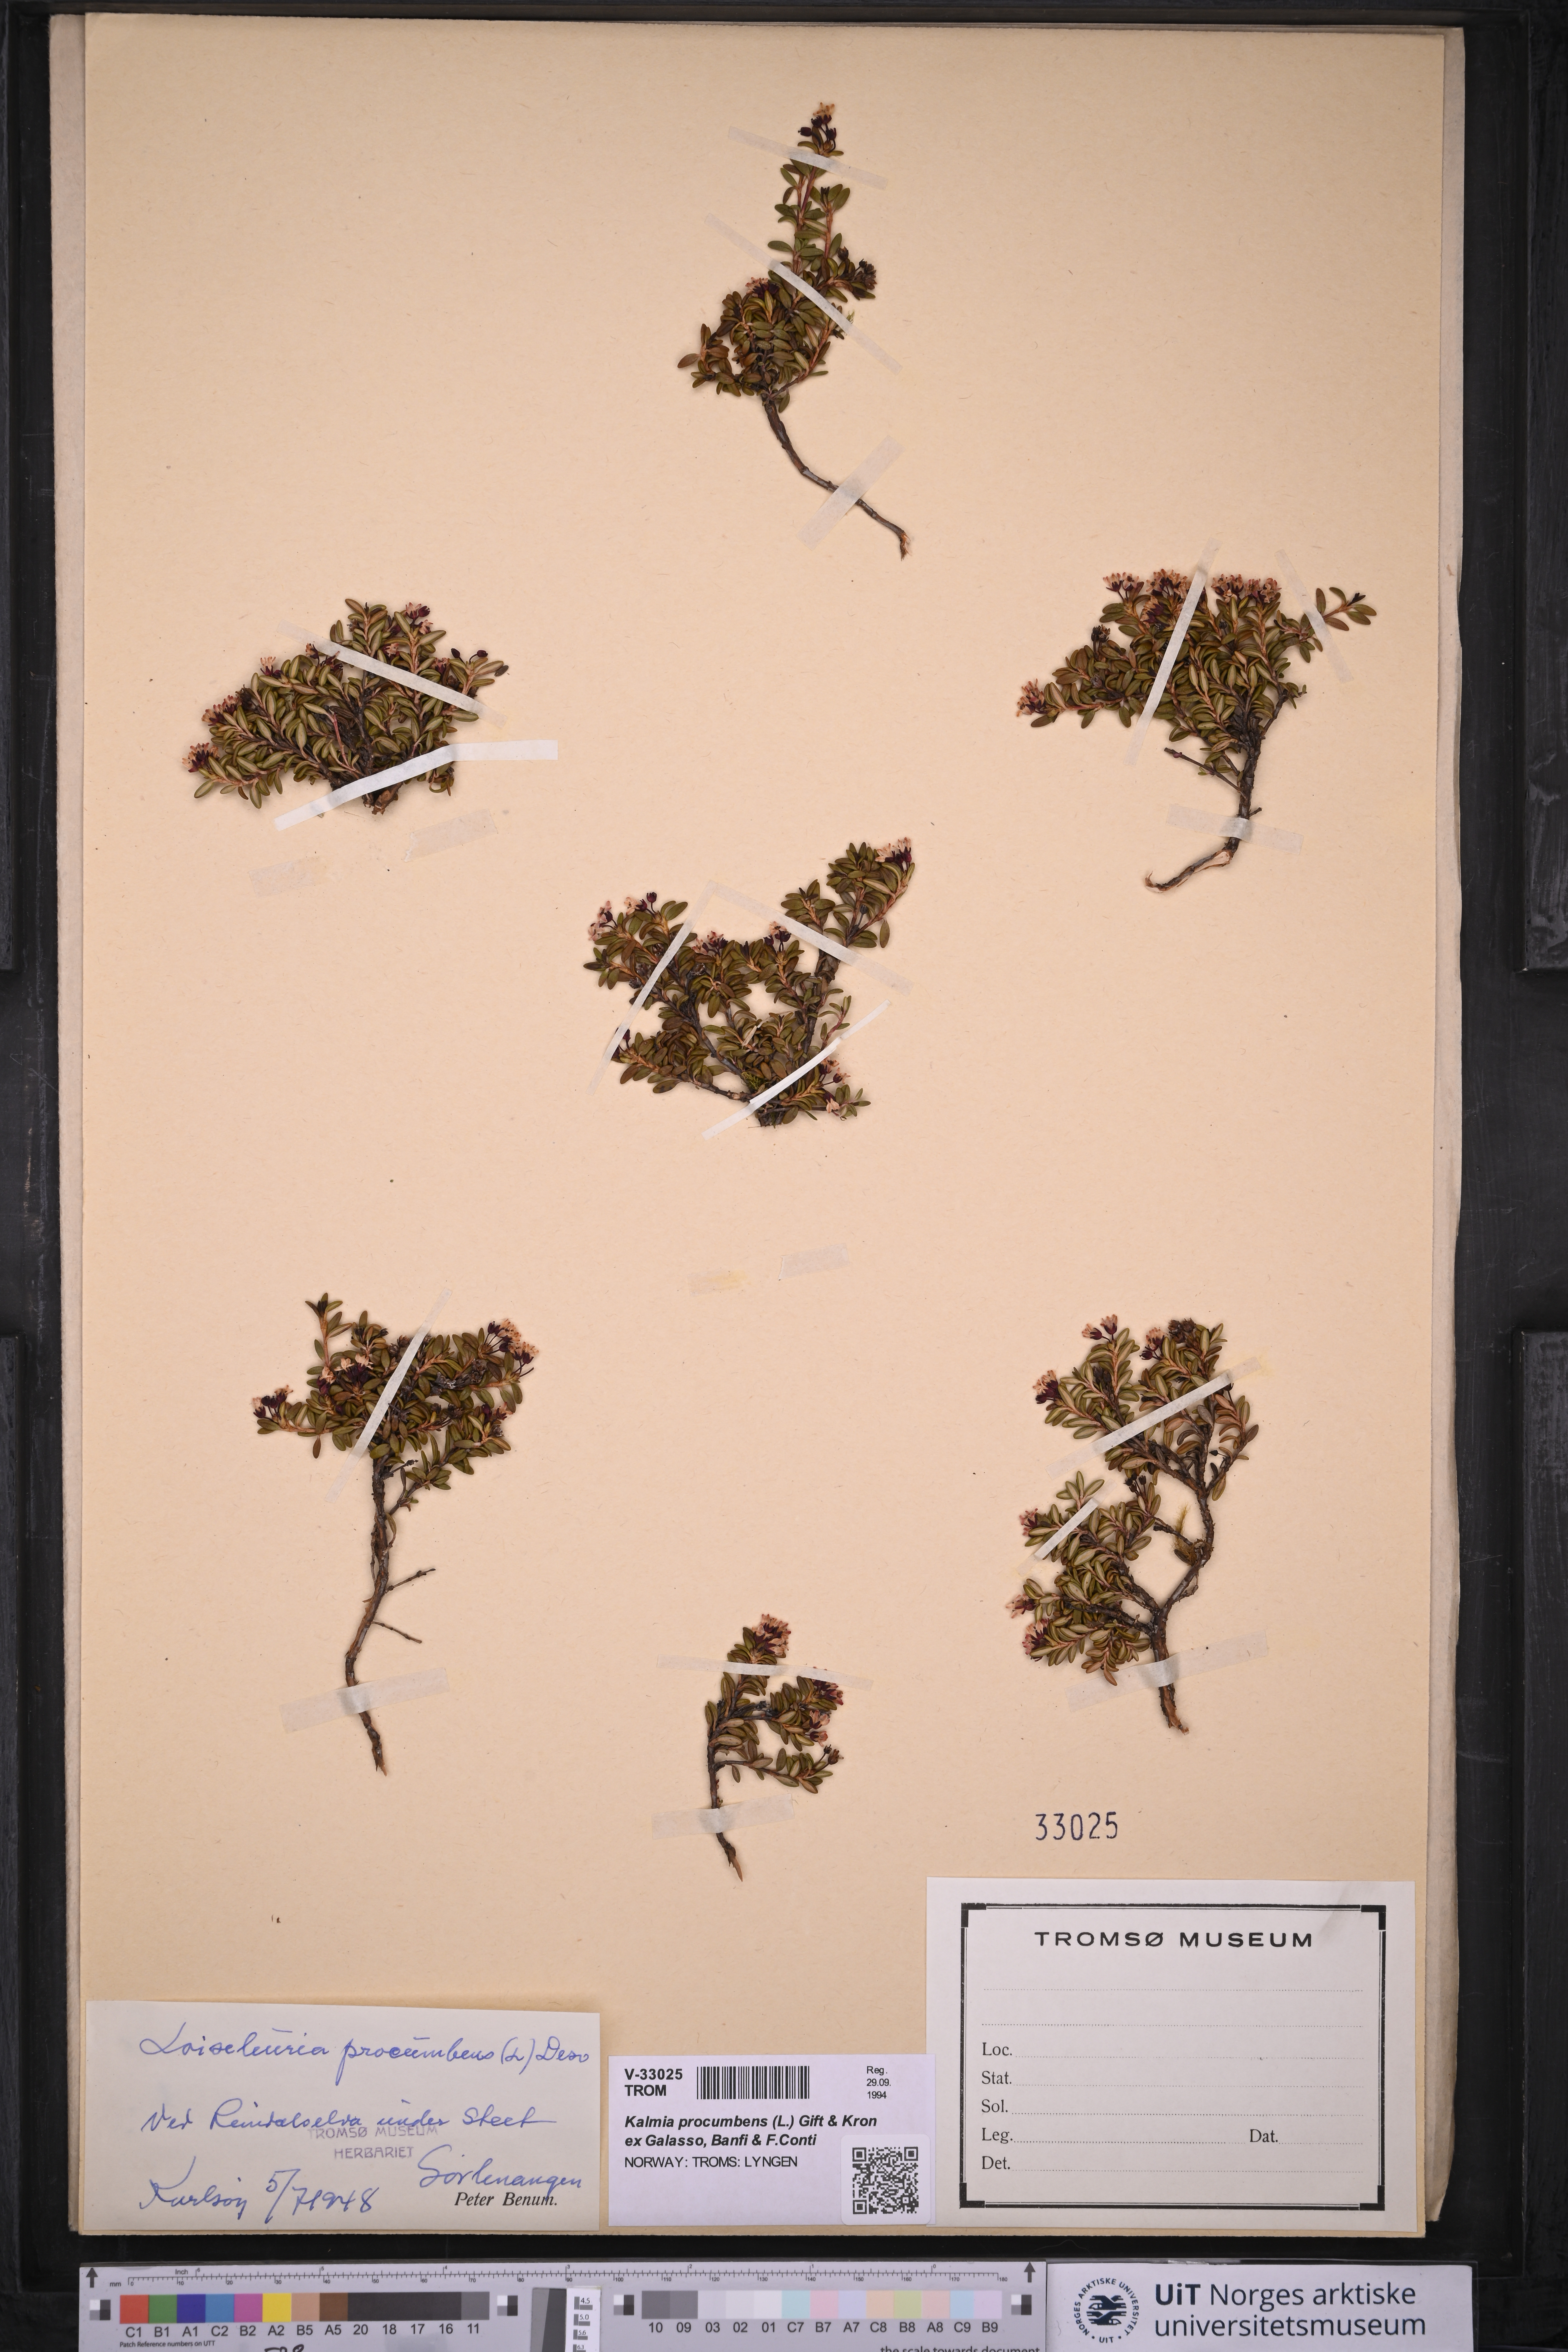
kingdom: Plantae
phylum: Tracheophyta
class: Magnoliopsida
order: Ericales
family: Ericaceae
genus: Kalmia
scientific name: Kalmia procumbens
